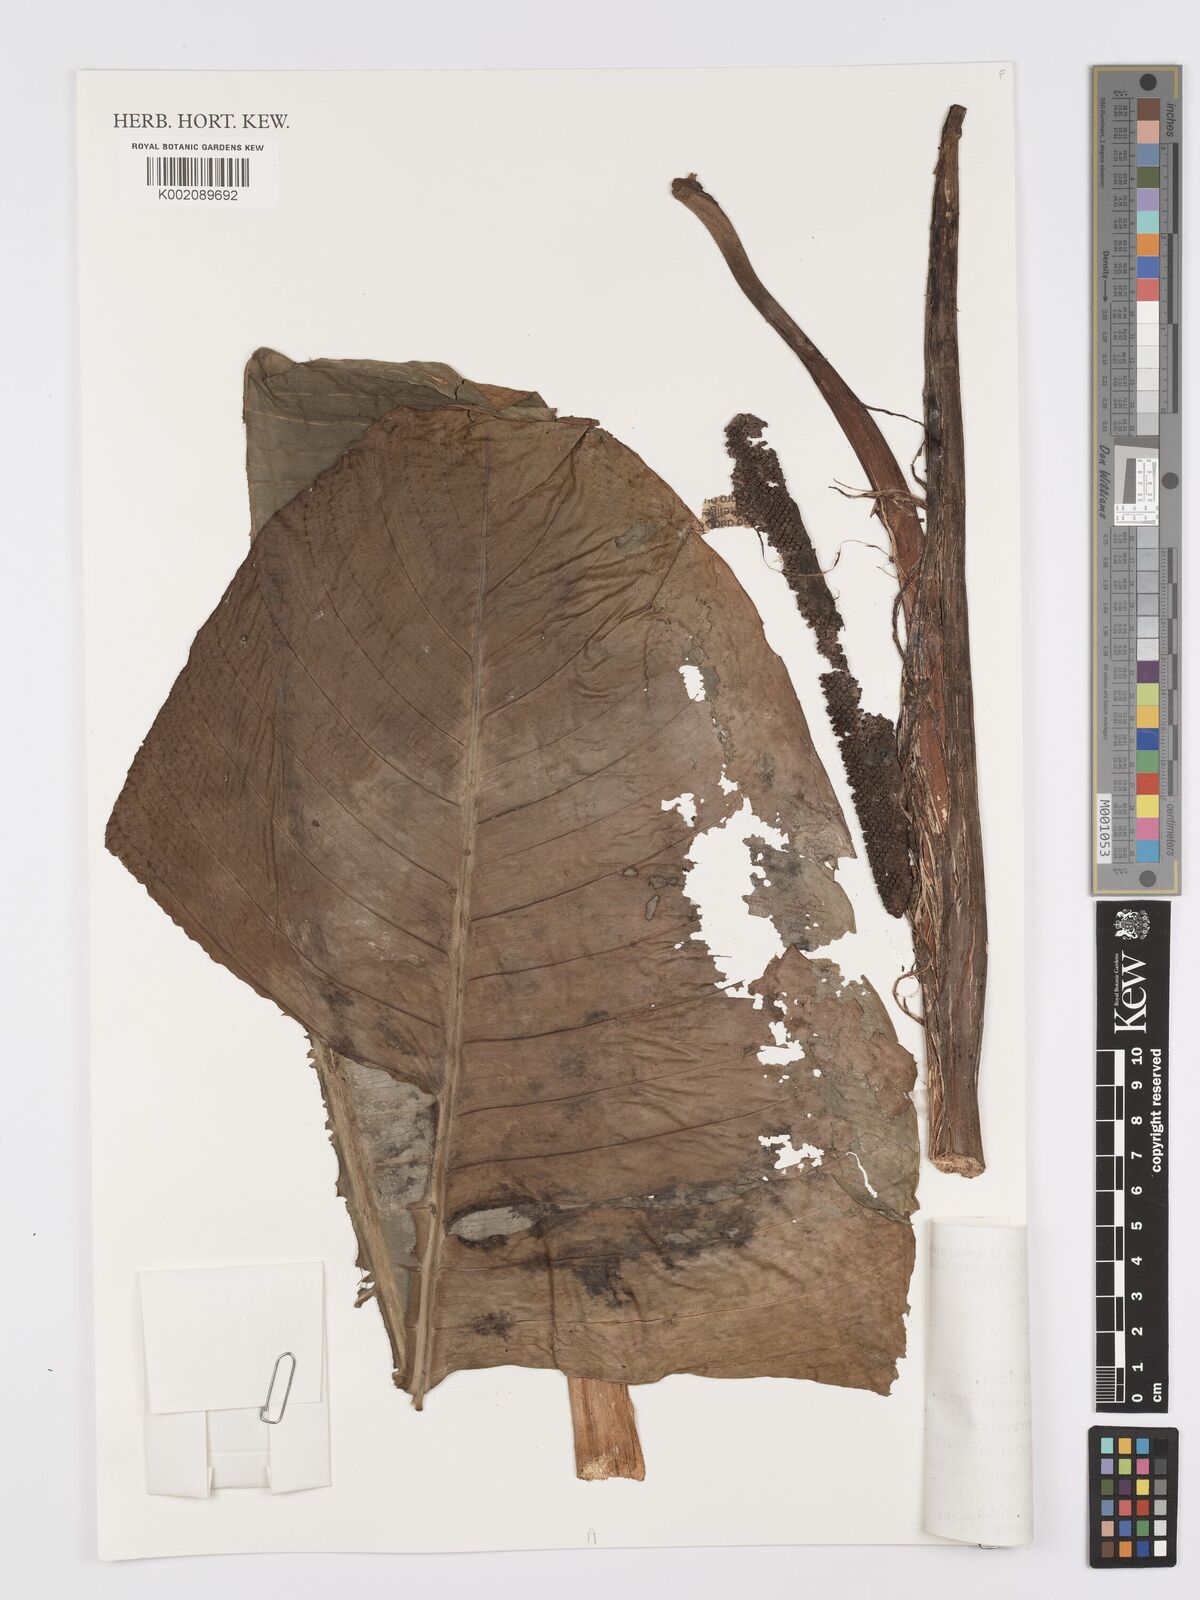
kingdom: Plantae
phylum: Tracheophyta
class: Liliopsida
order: Alismatales
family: Araceae
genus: Rhodospatha
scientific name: Rhodospatha
